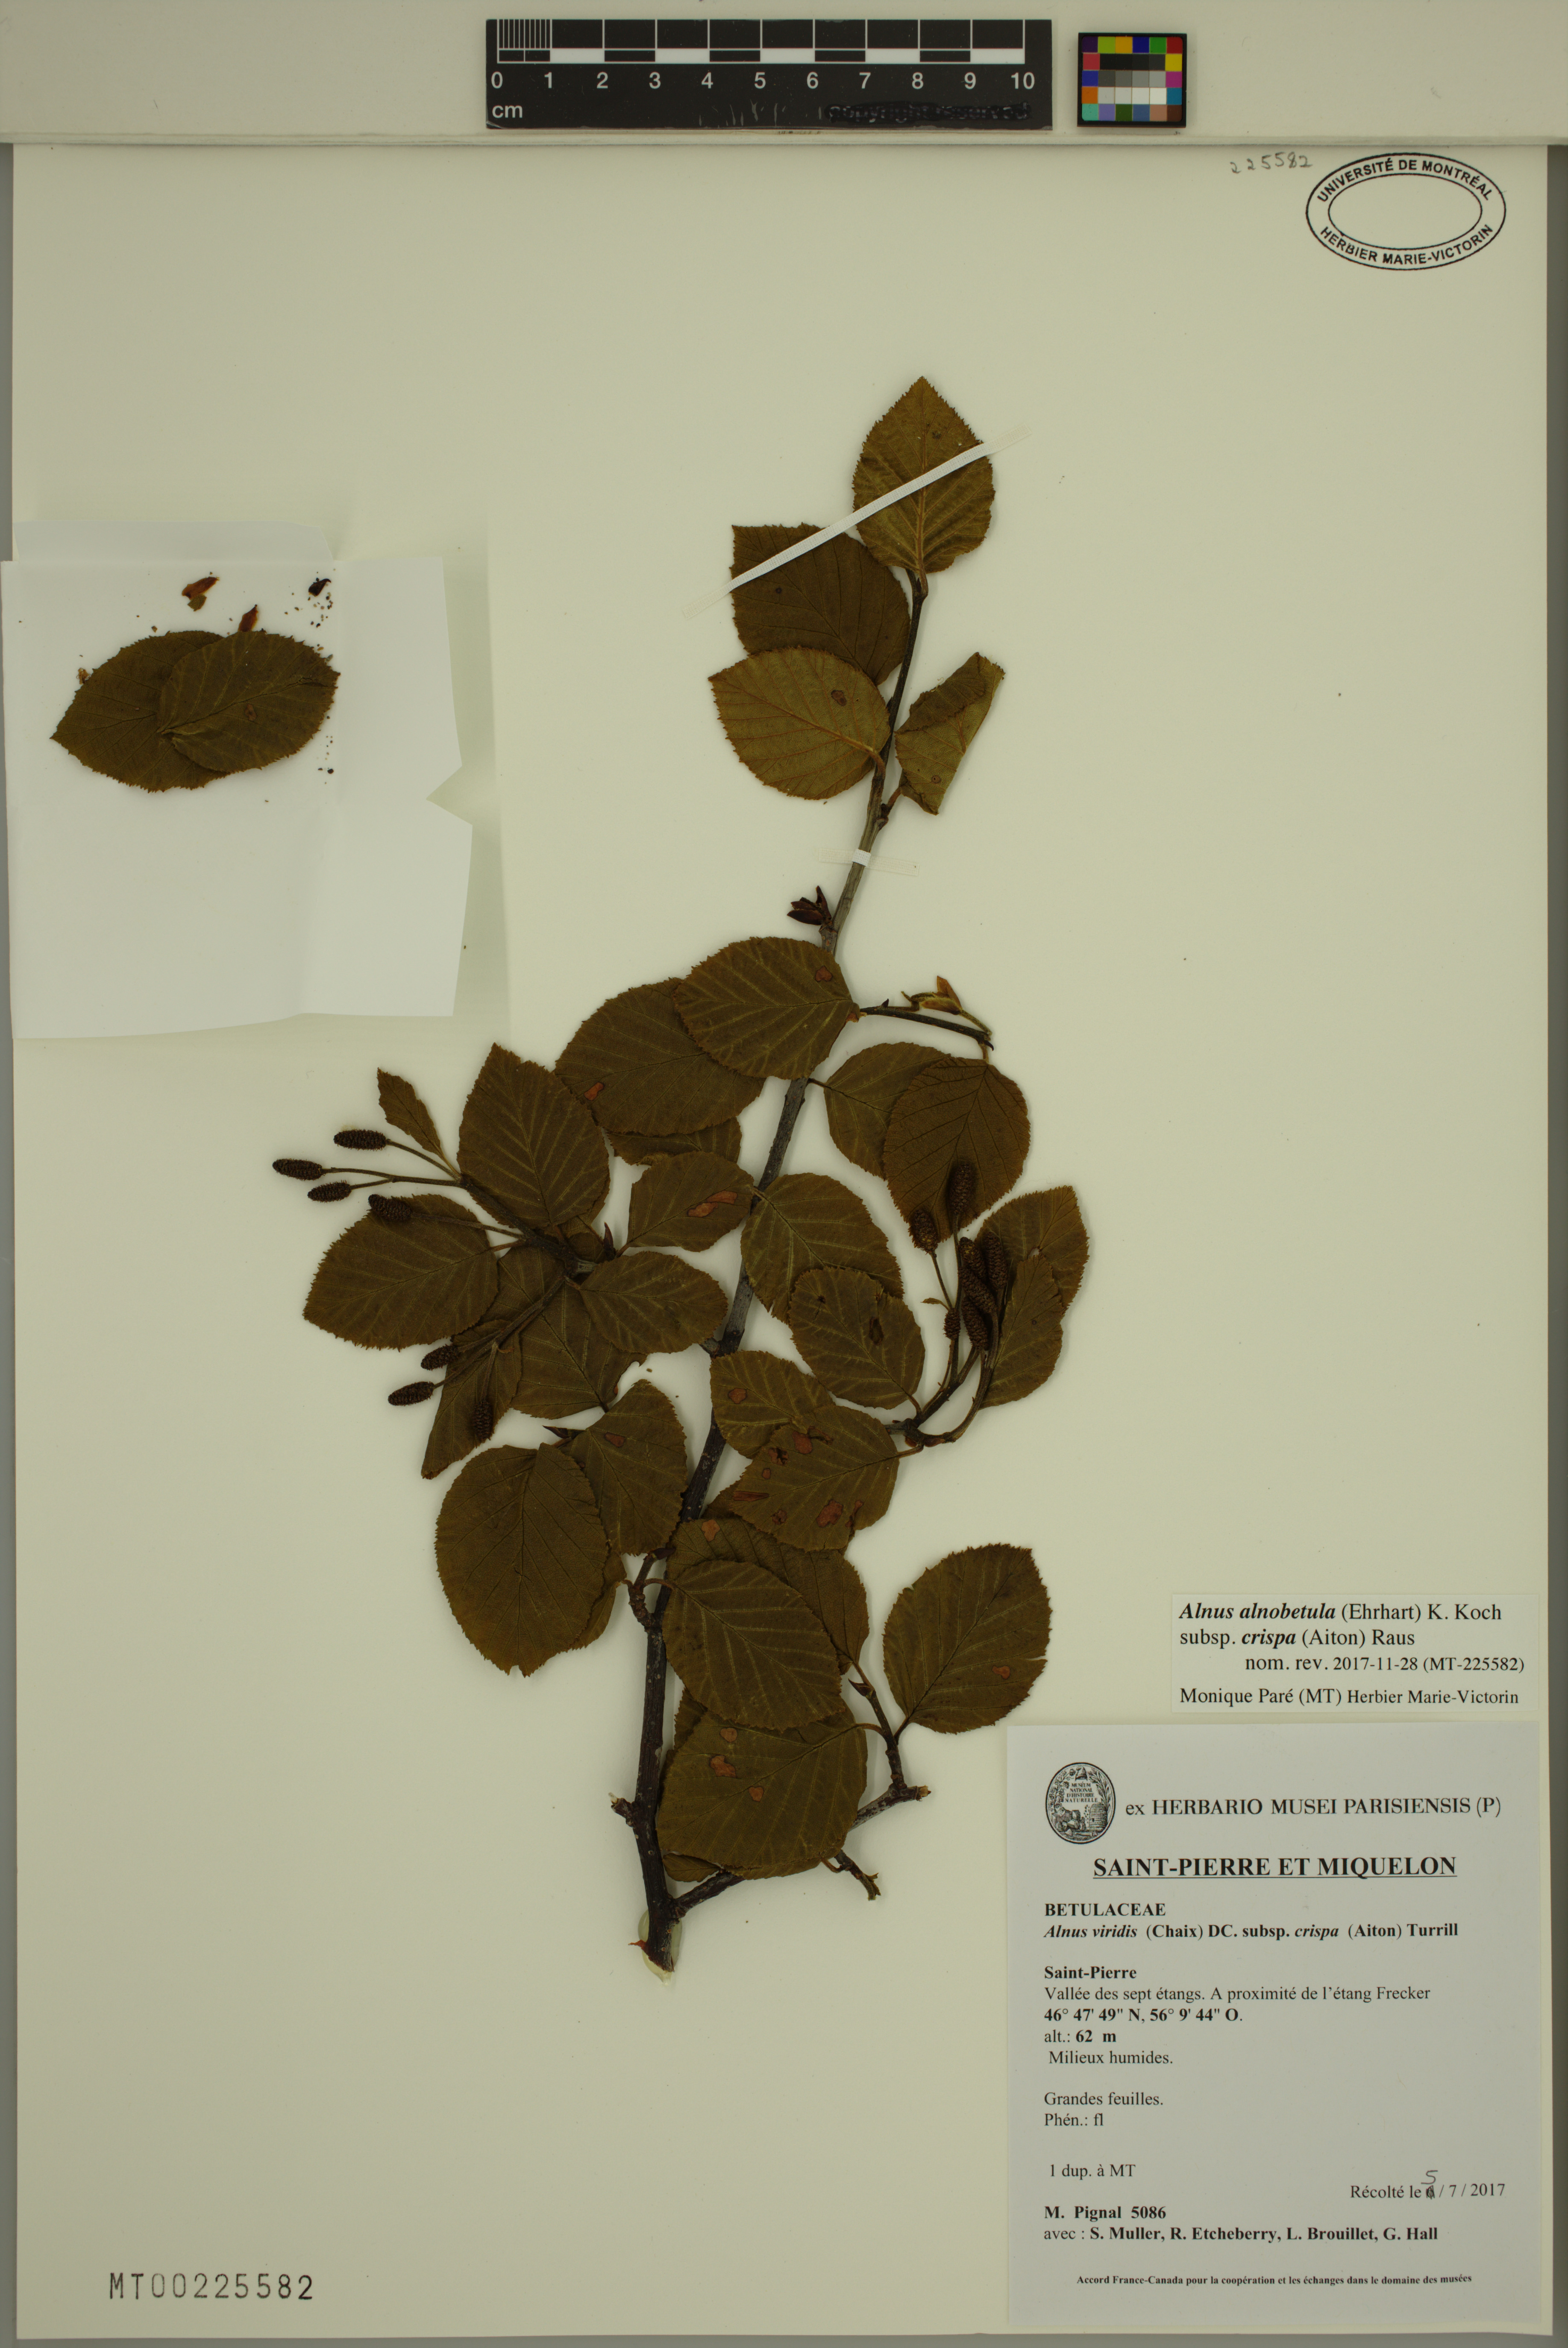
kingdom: Plantae
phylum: Tracheophyta
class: Magnoliopsida
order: Fagales
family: Betulaceae
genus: Alnus
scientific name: Alnus alnobetula
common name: Green alder
